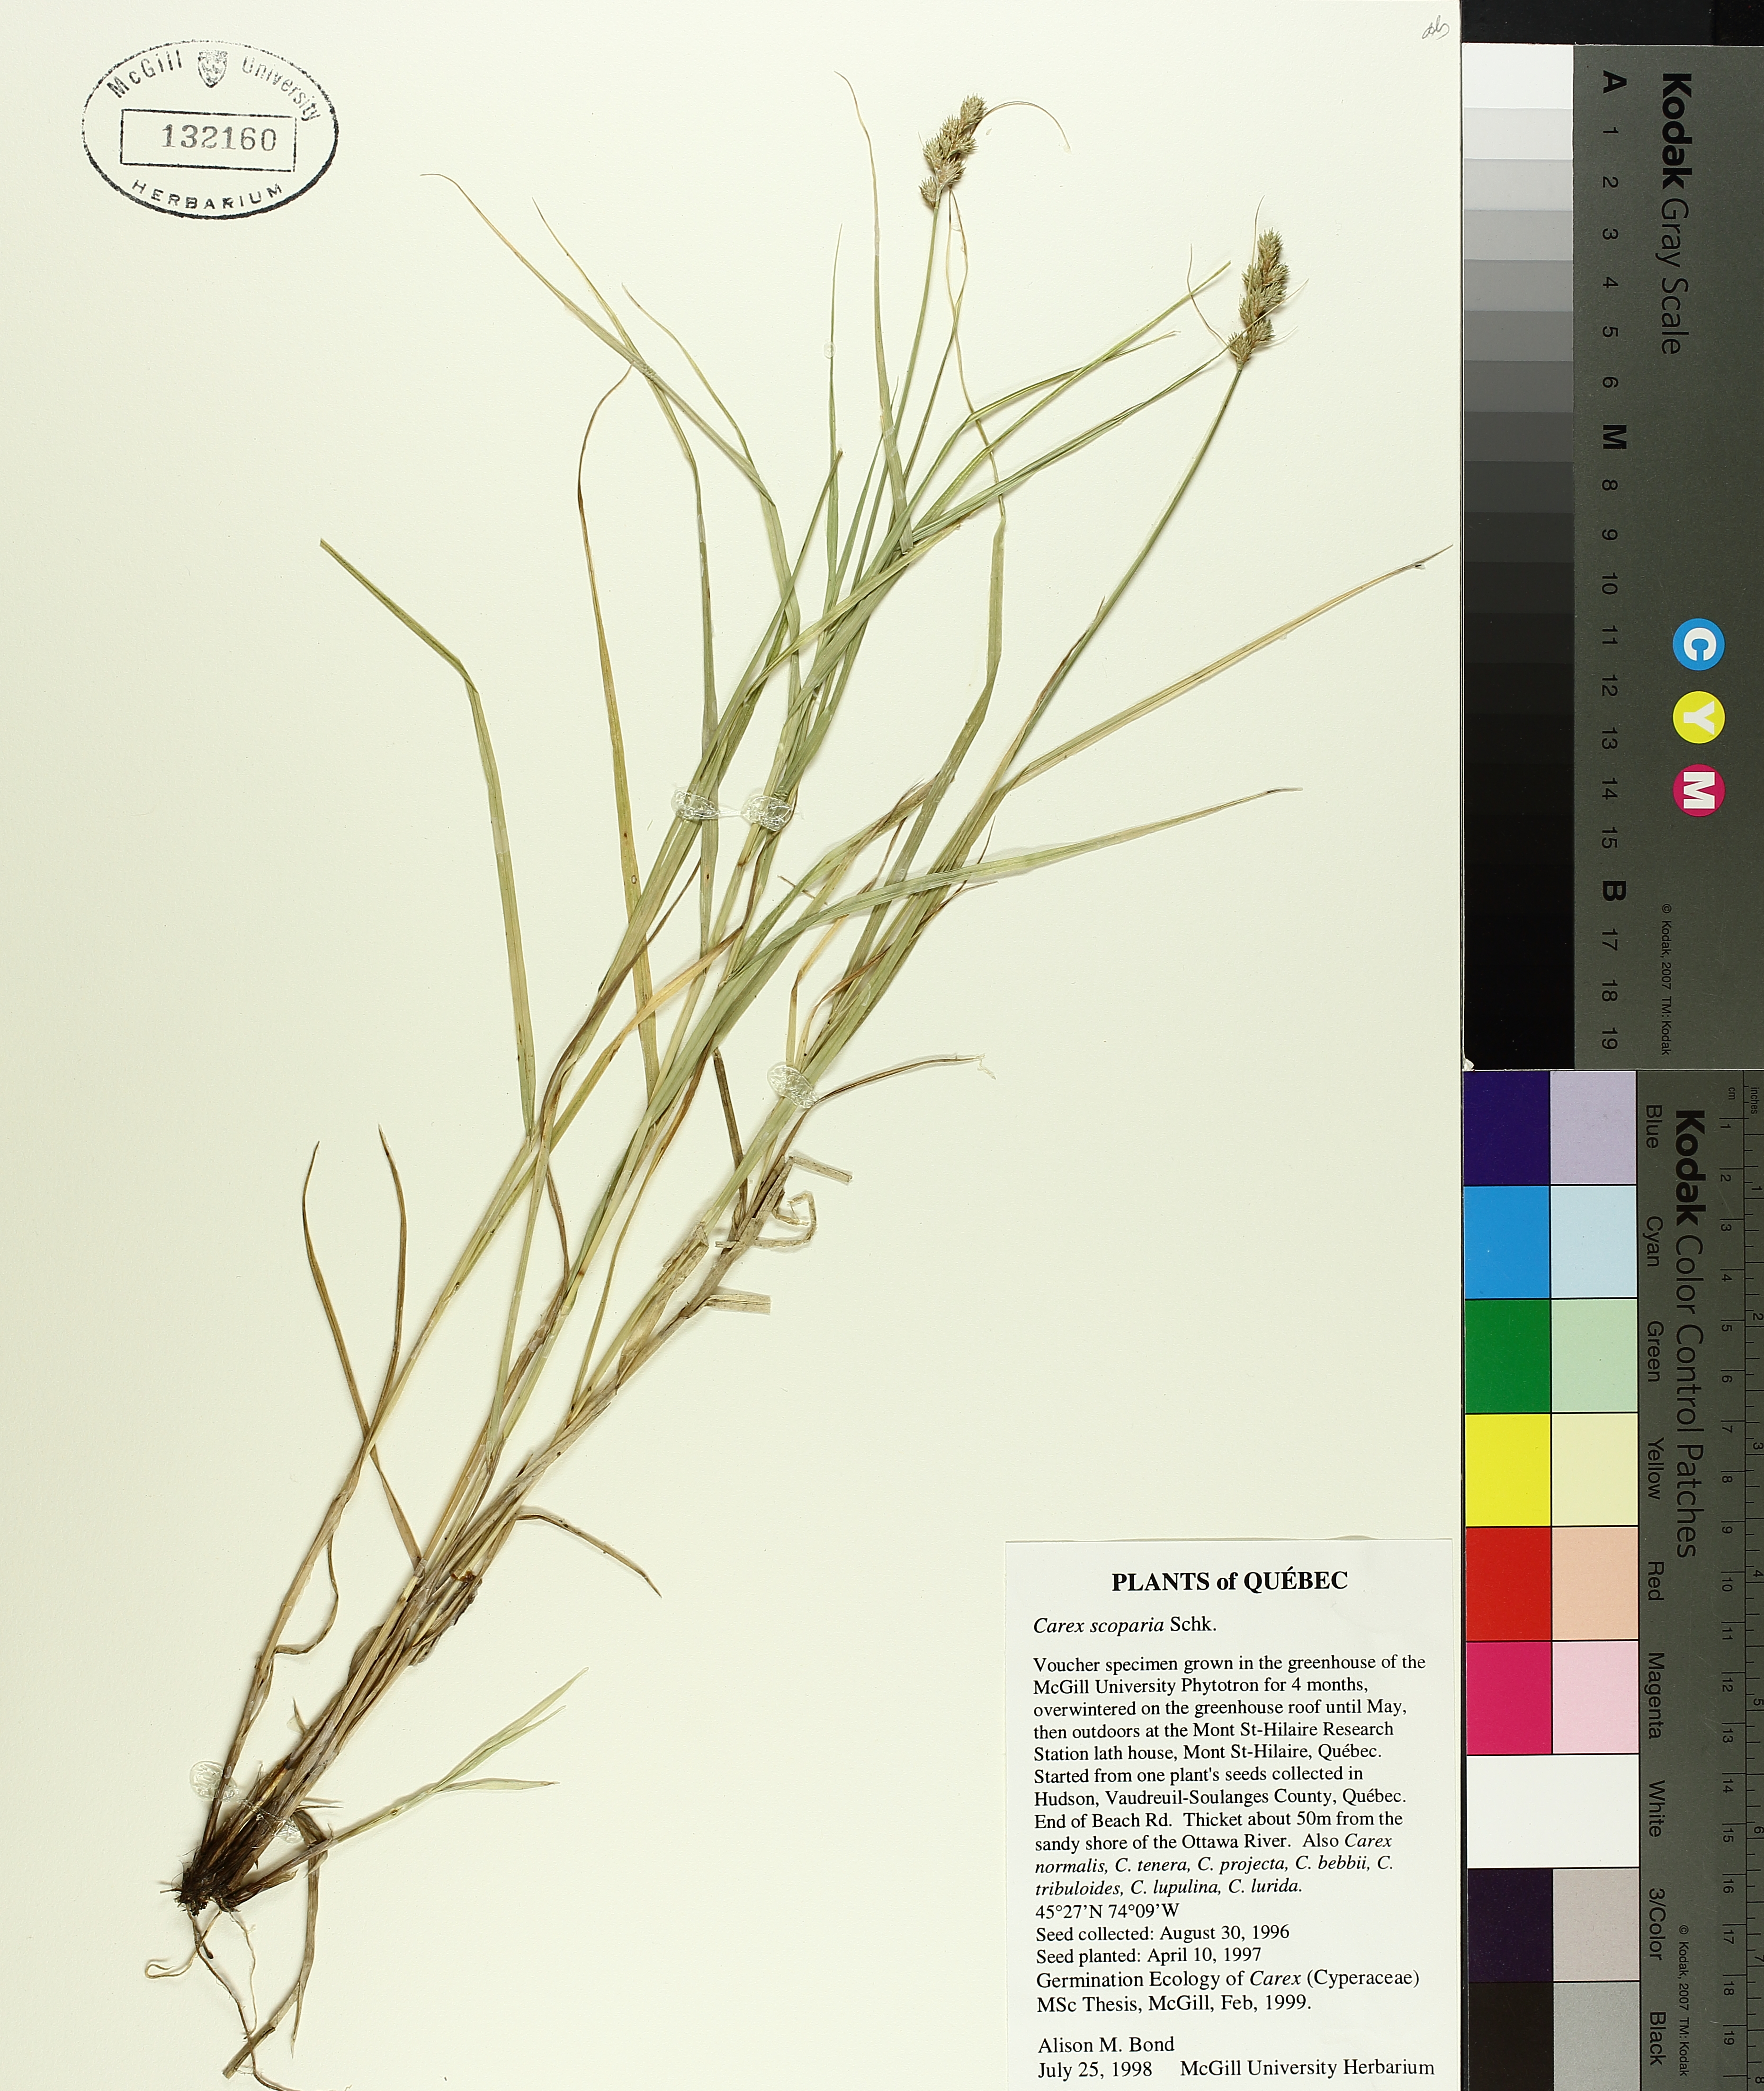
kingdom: Plantae
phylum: Tracheophyta
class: Liliopsida
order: Poales
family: Cyperaceae
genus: Carex
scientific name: Carex scoparia
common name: Broom sedge
